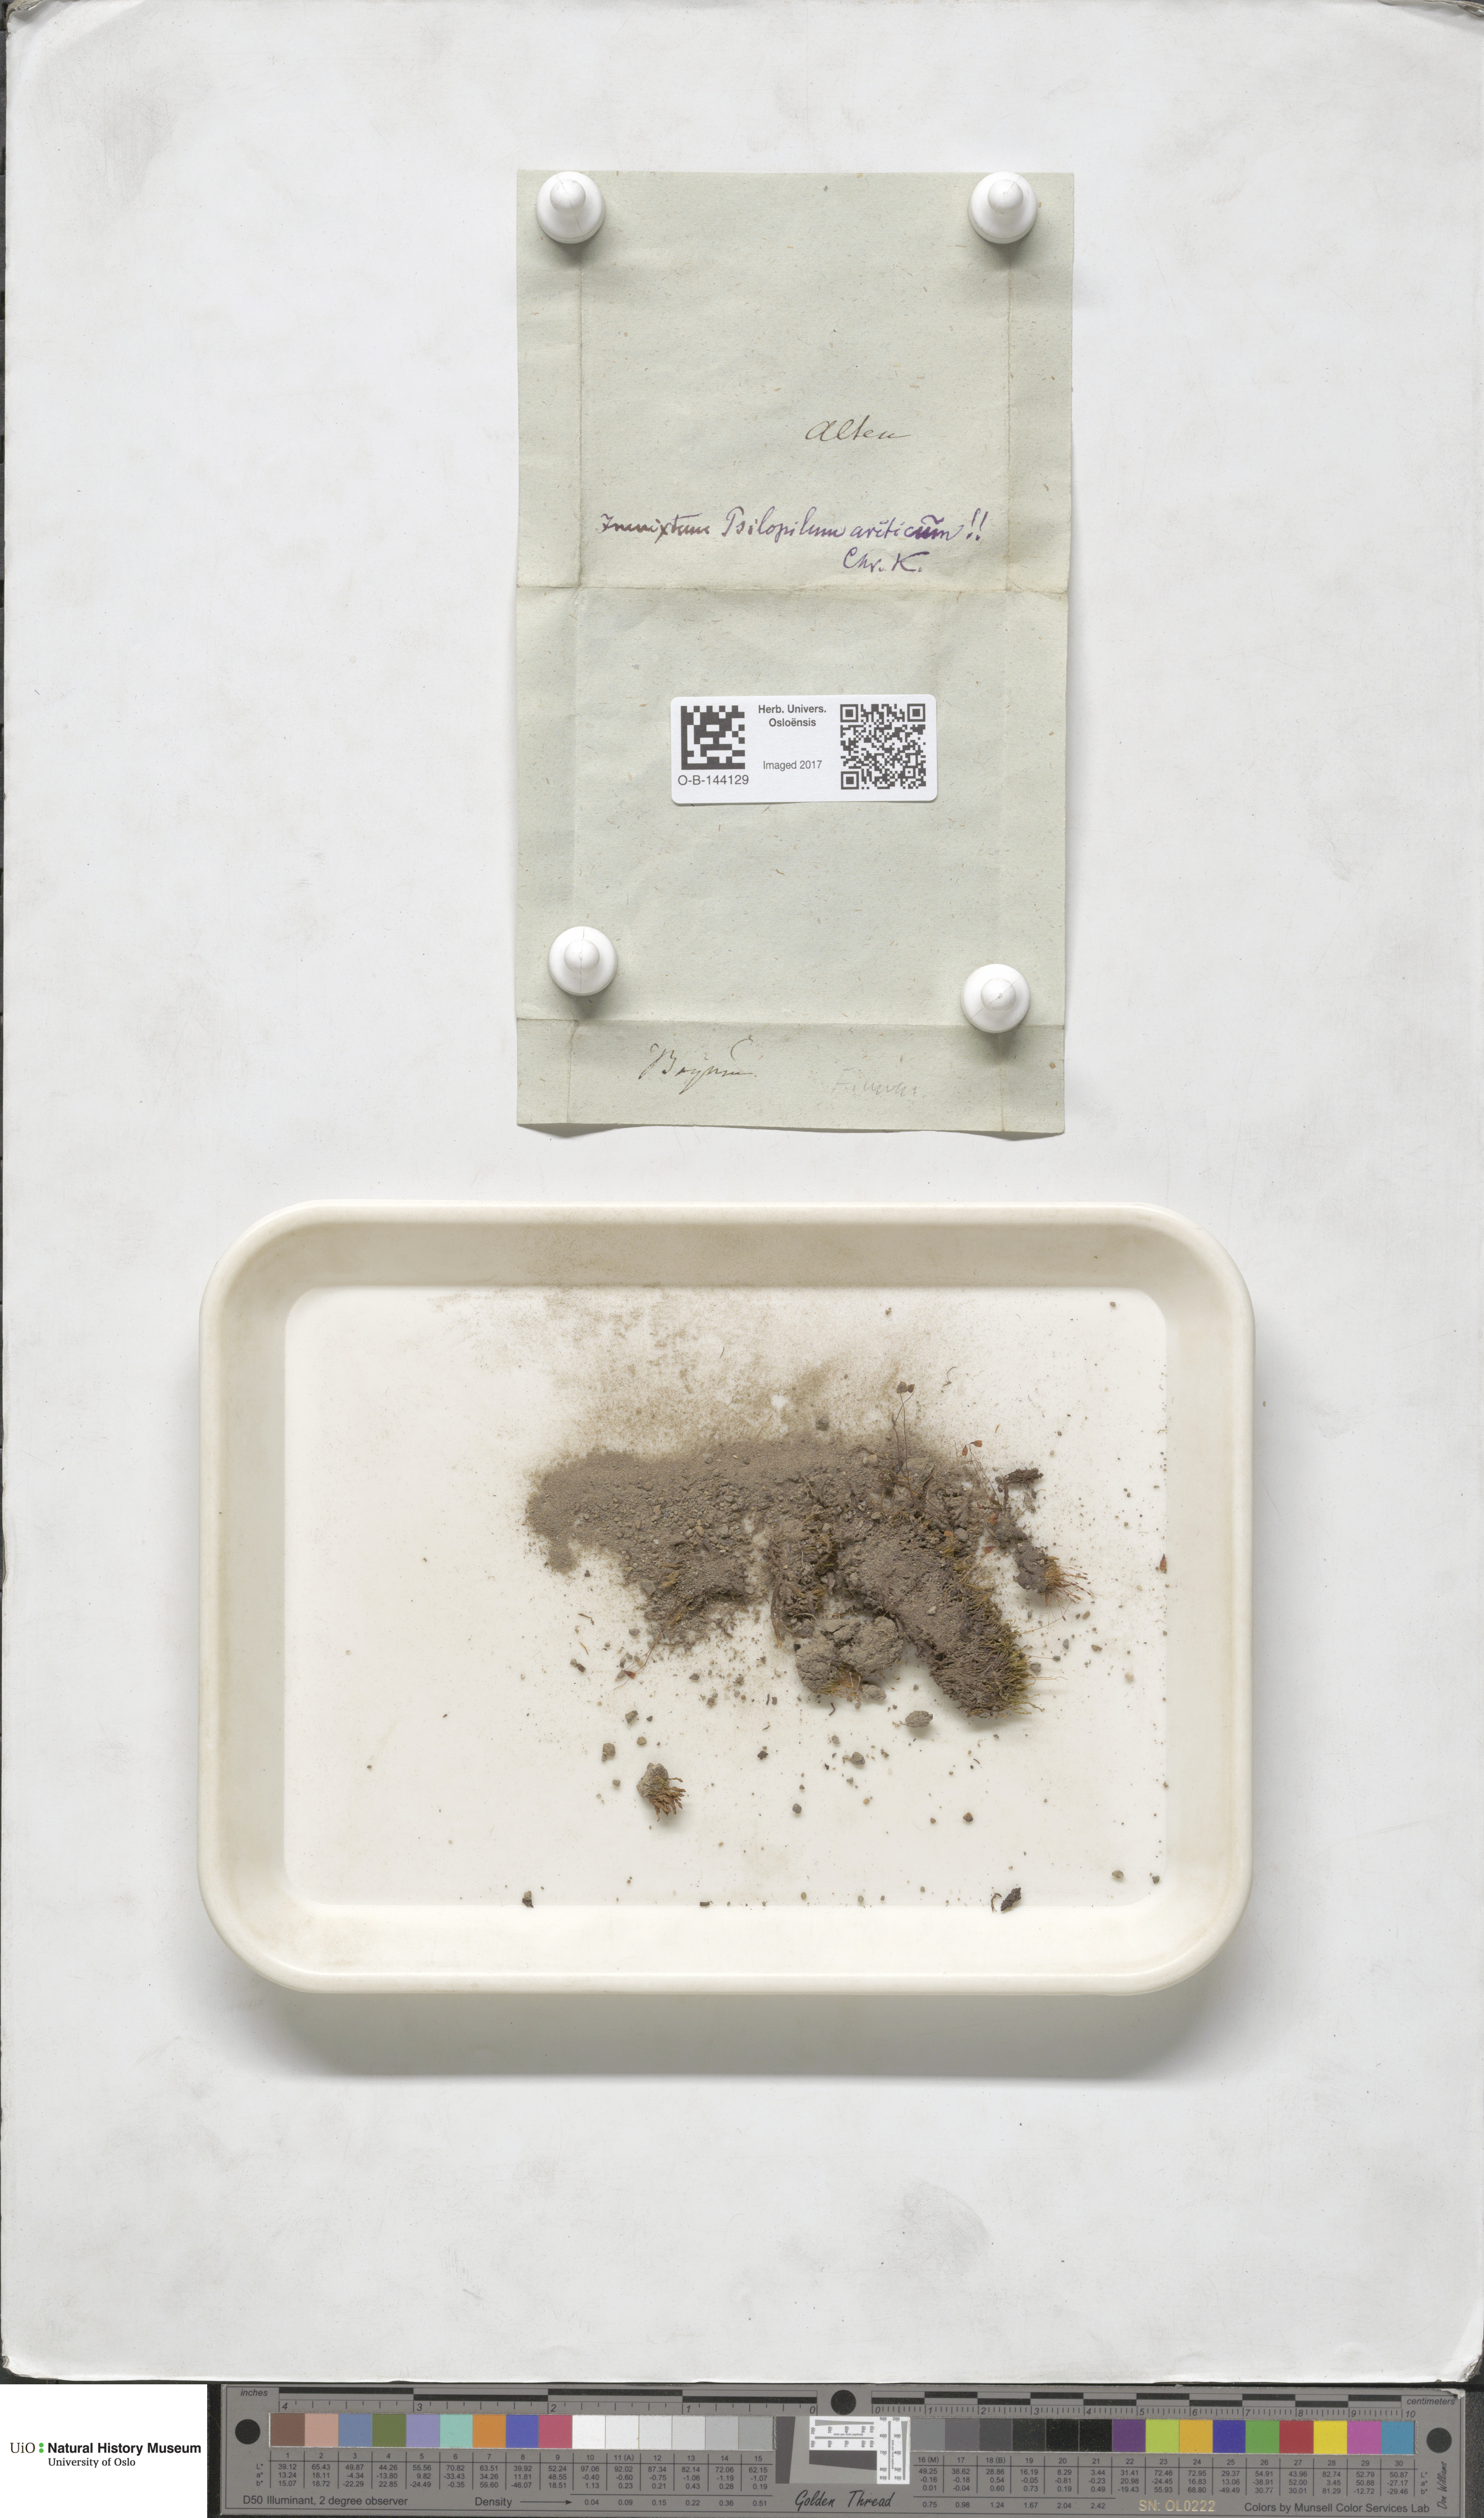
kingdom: Plantae
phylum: Bryophyta
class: Bryopsida
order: Bryales
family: Bryaceae
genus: Bryum
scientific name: Bryum
